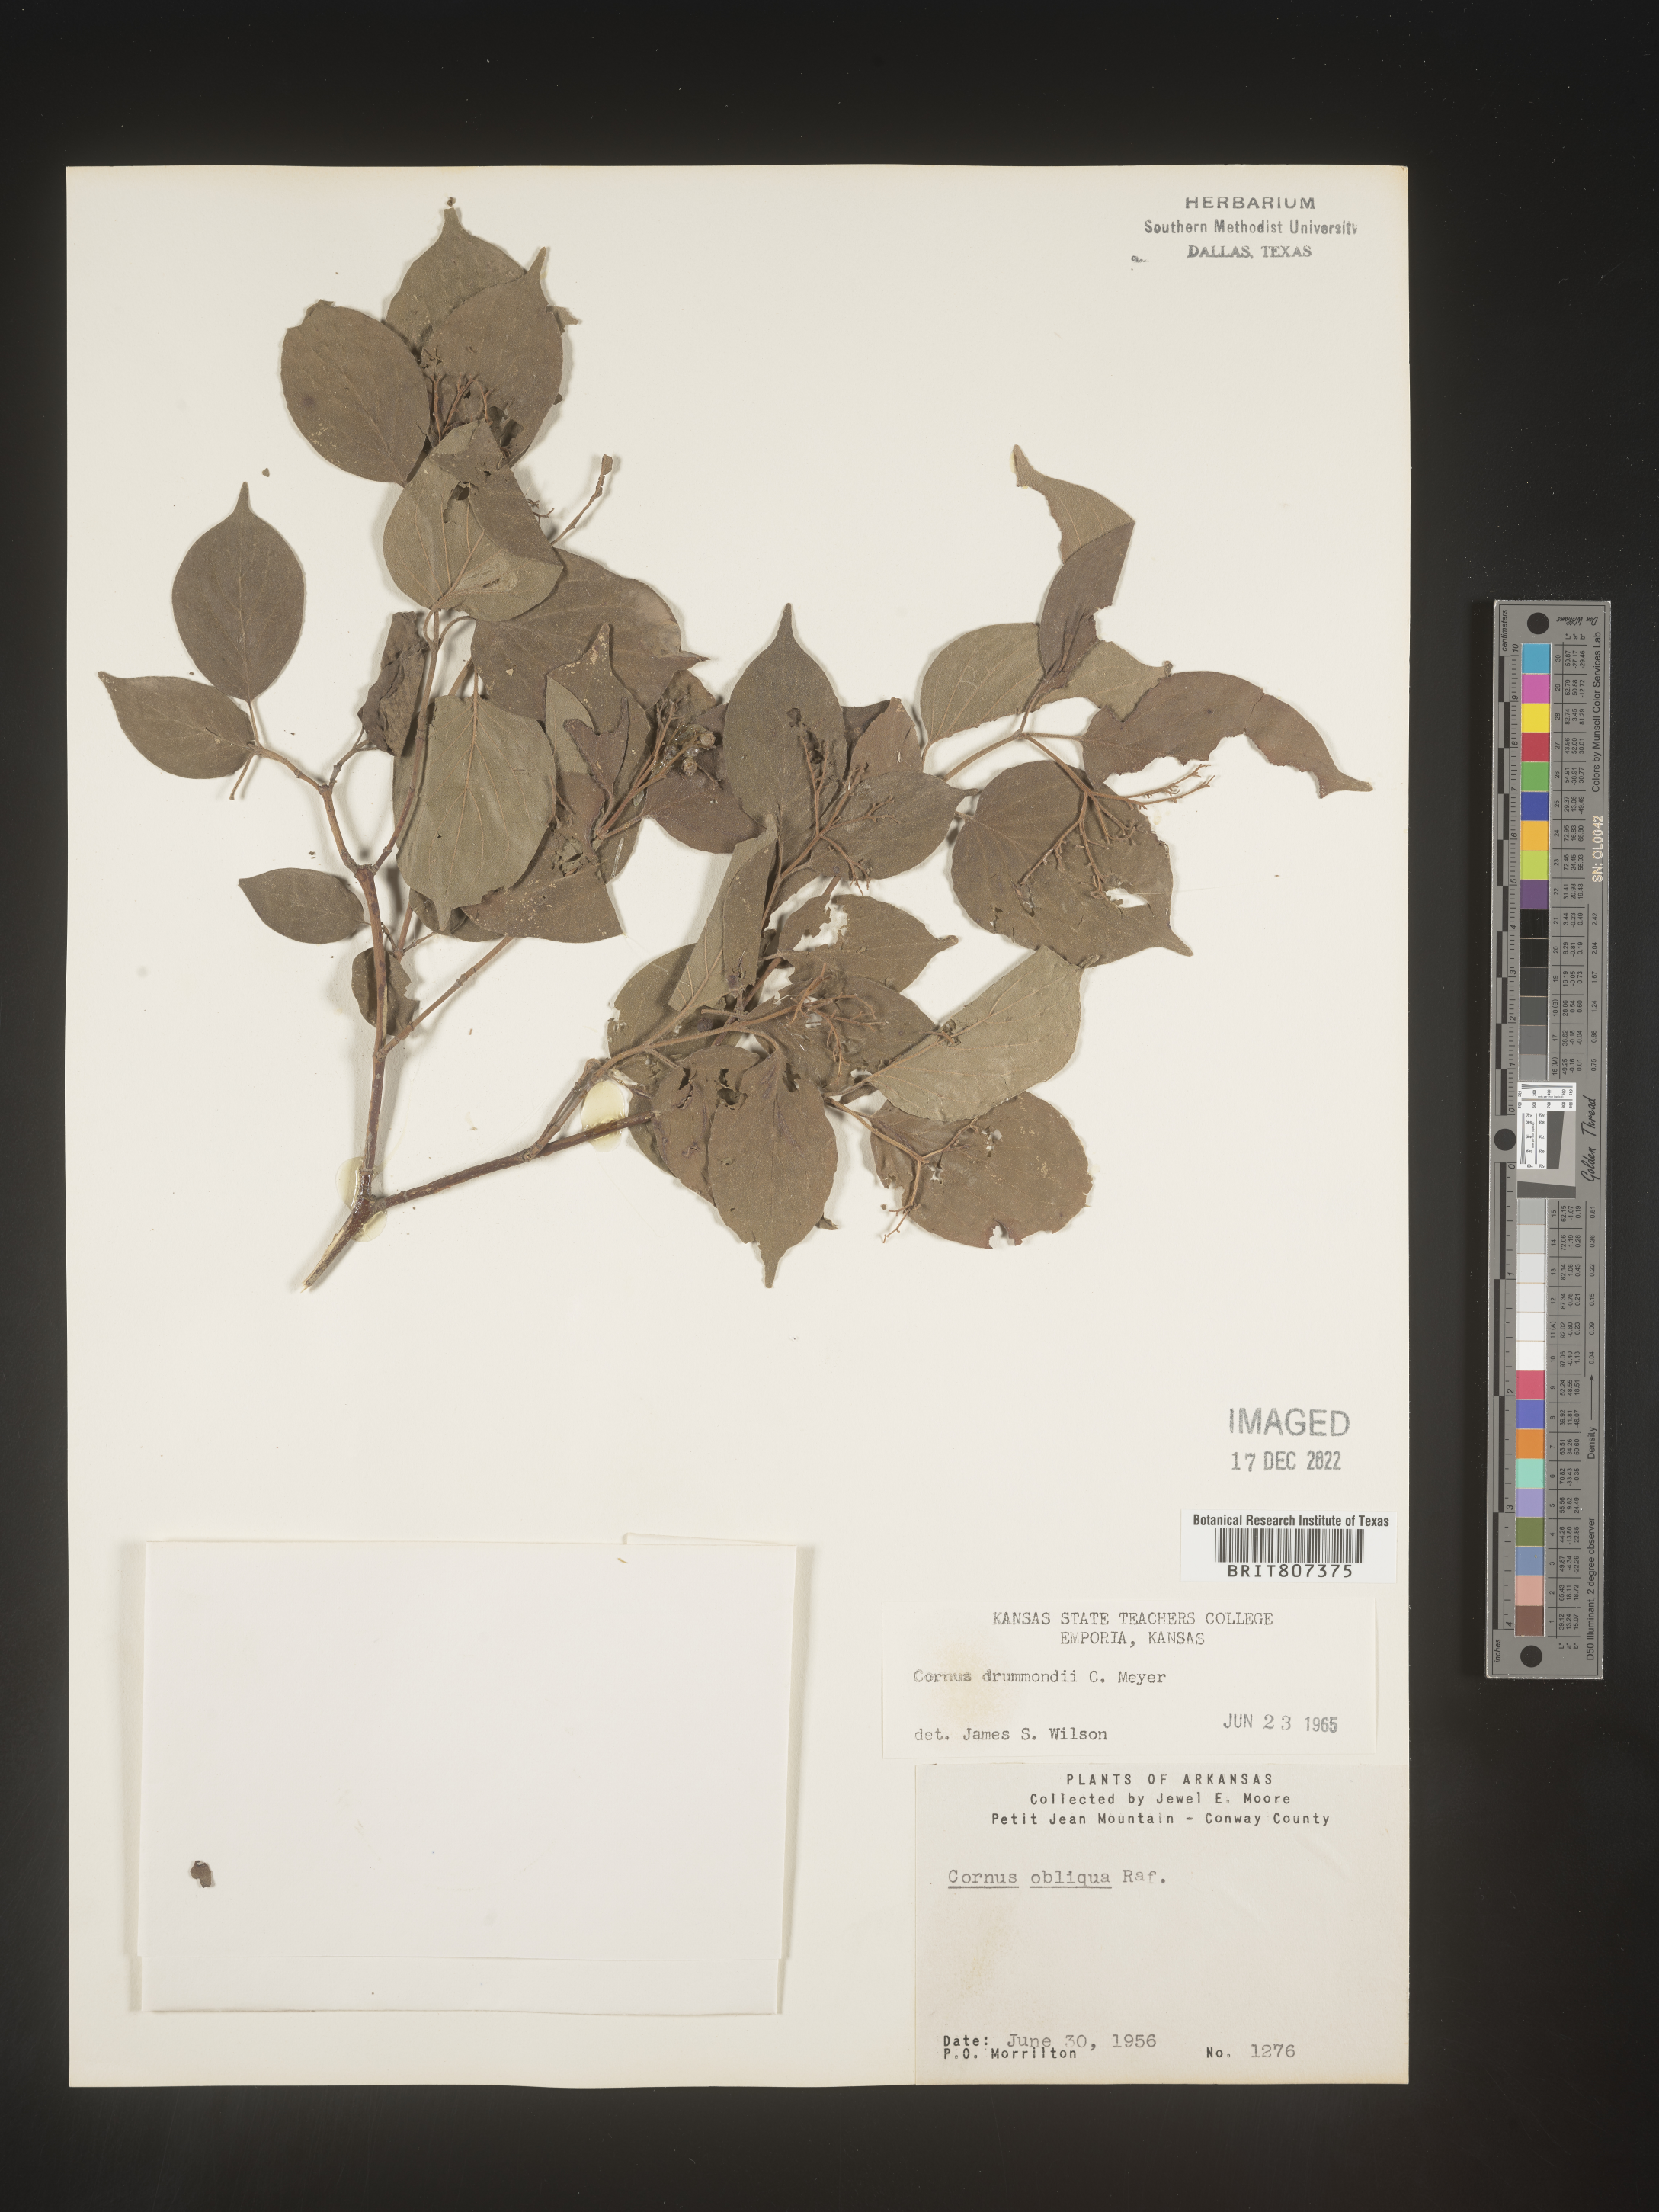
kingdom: Plantae
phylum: Tracheophyta
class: Magnoliopsida
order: Cornales
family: Cornaceae
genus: Cornus
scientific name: Cornus drummondii
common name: Rough-leaf dogwood
